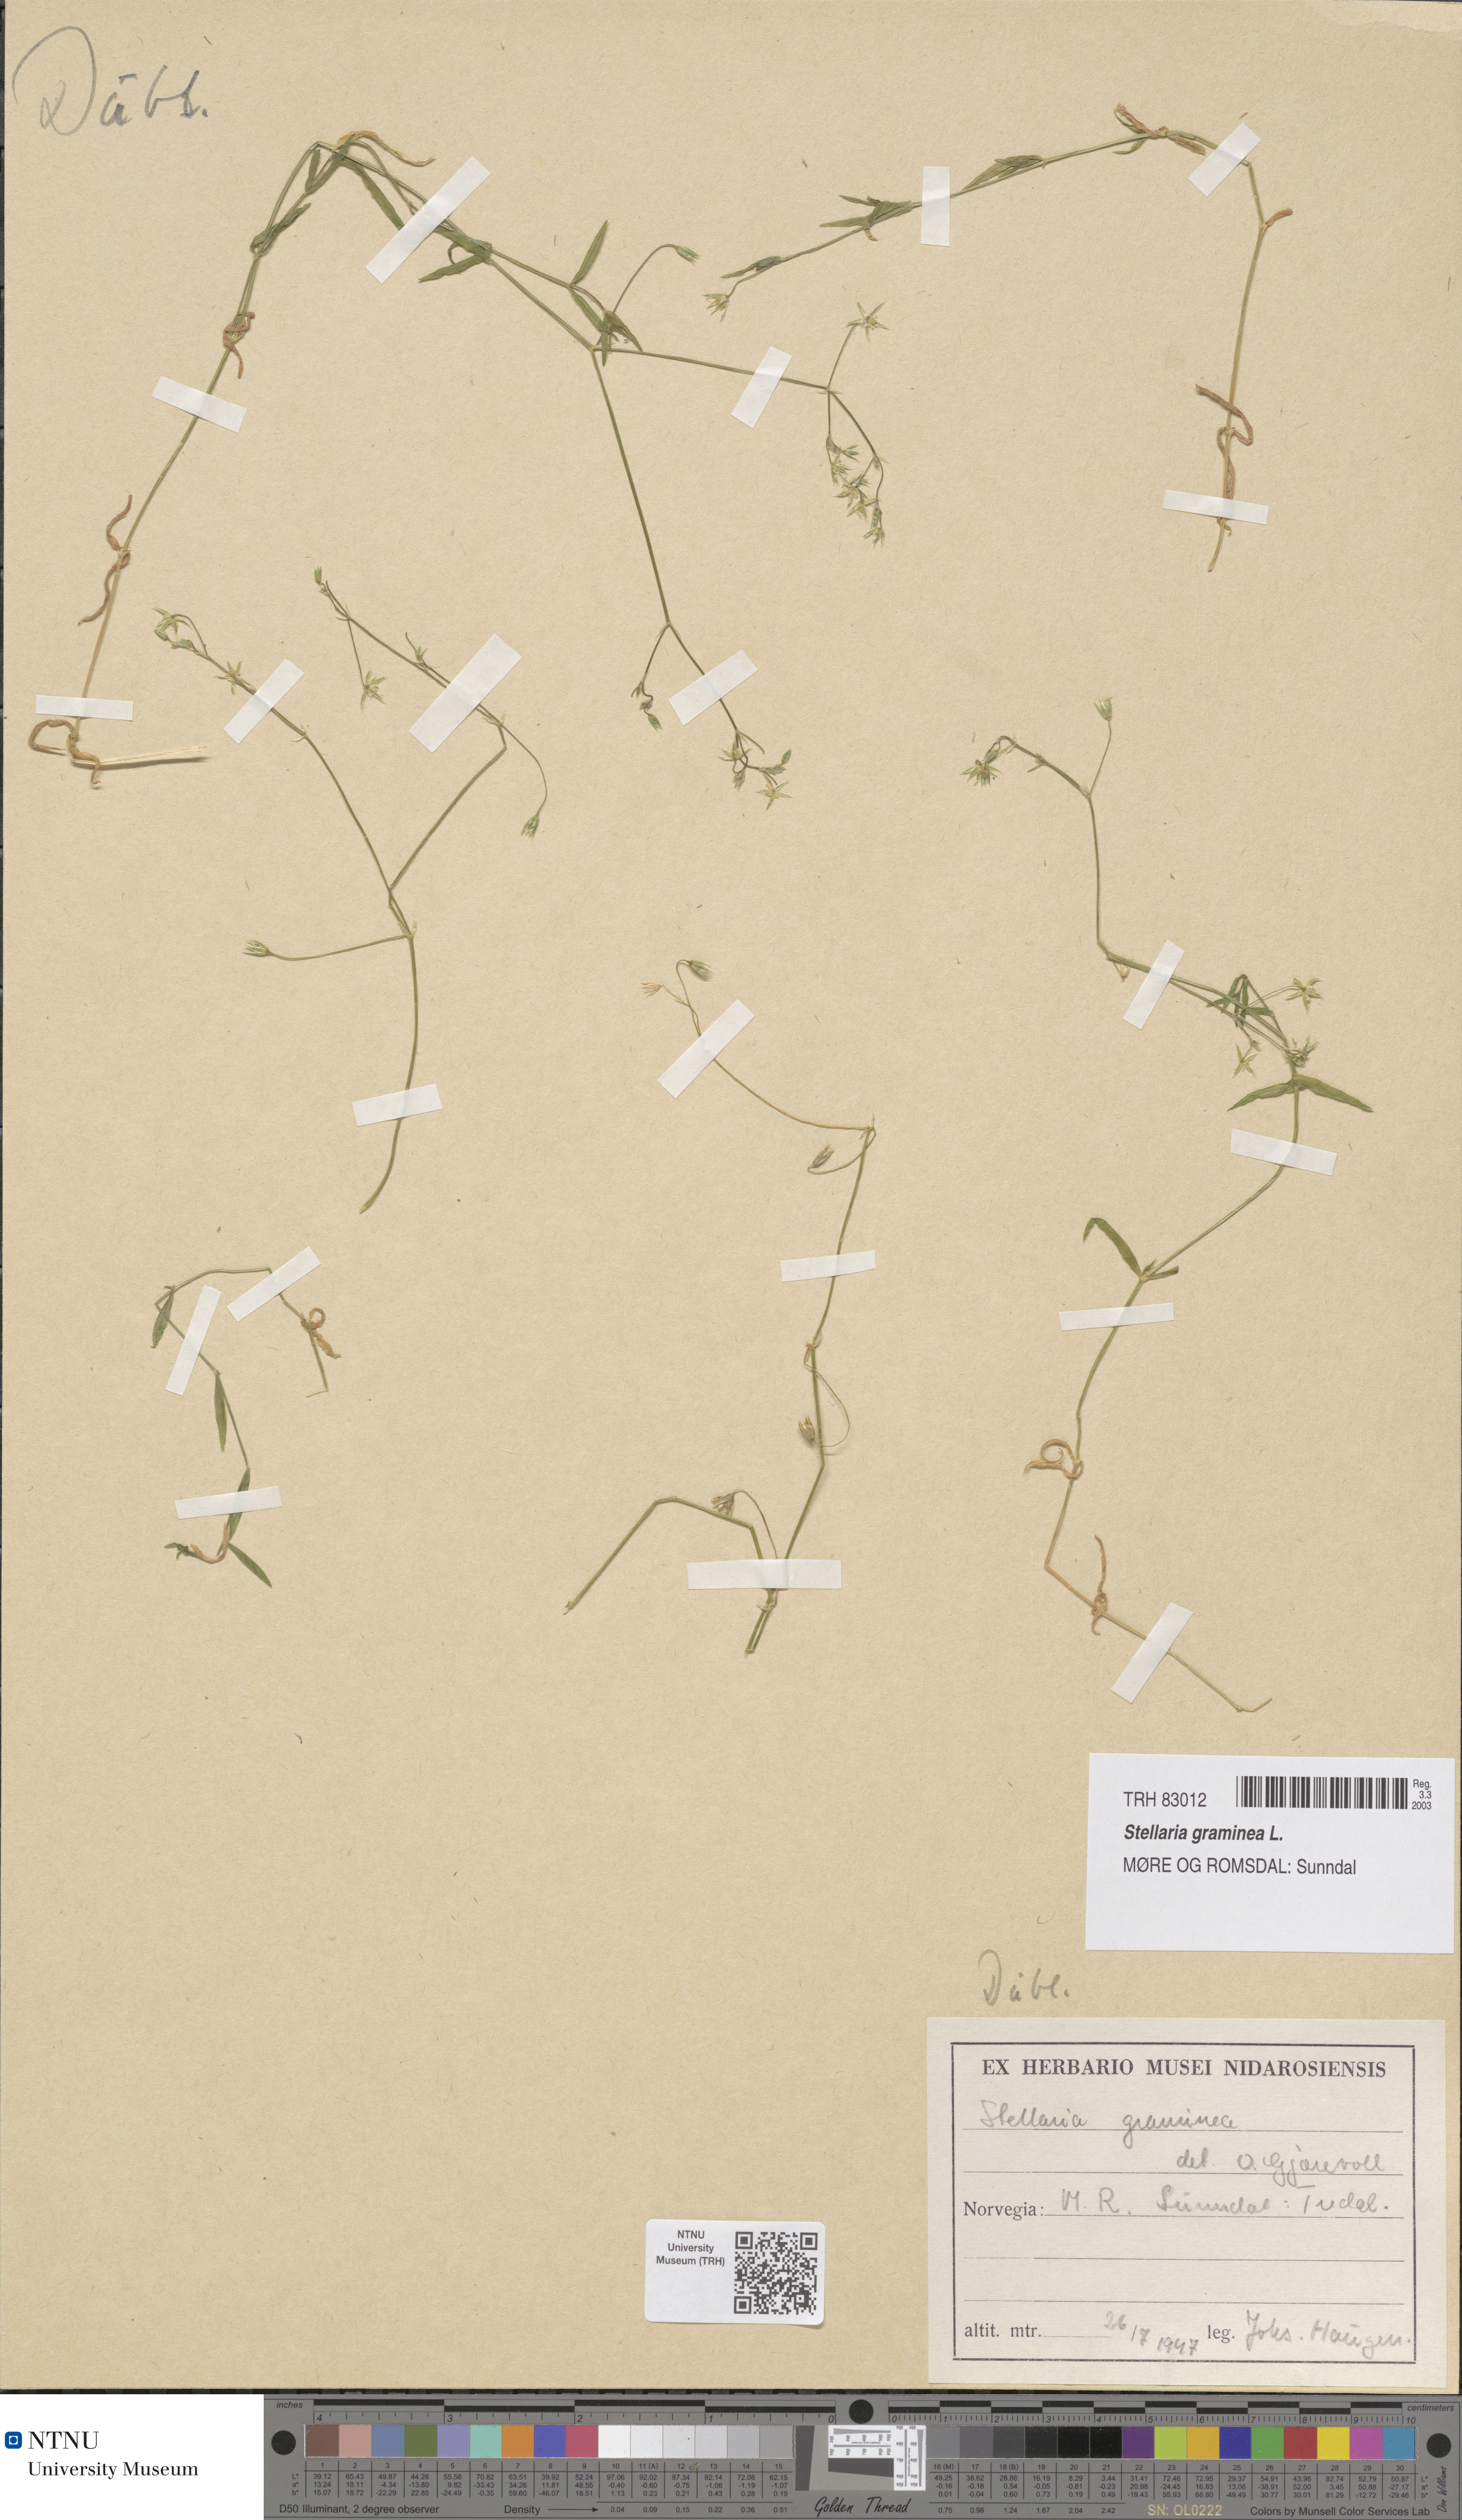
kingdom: Plantae
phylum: Tracheophyta
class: Magnoliopsida
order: Caryophyllales
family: Caryophyllaceae
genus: Stellaria
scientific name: Stellaria graminea
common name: Grass-like starwort
